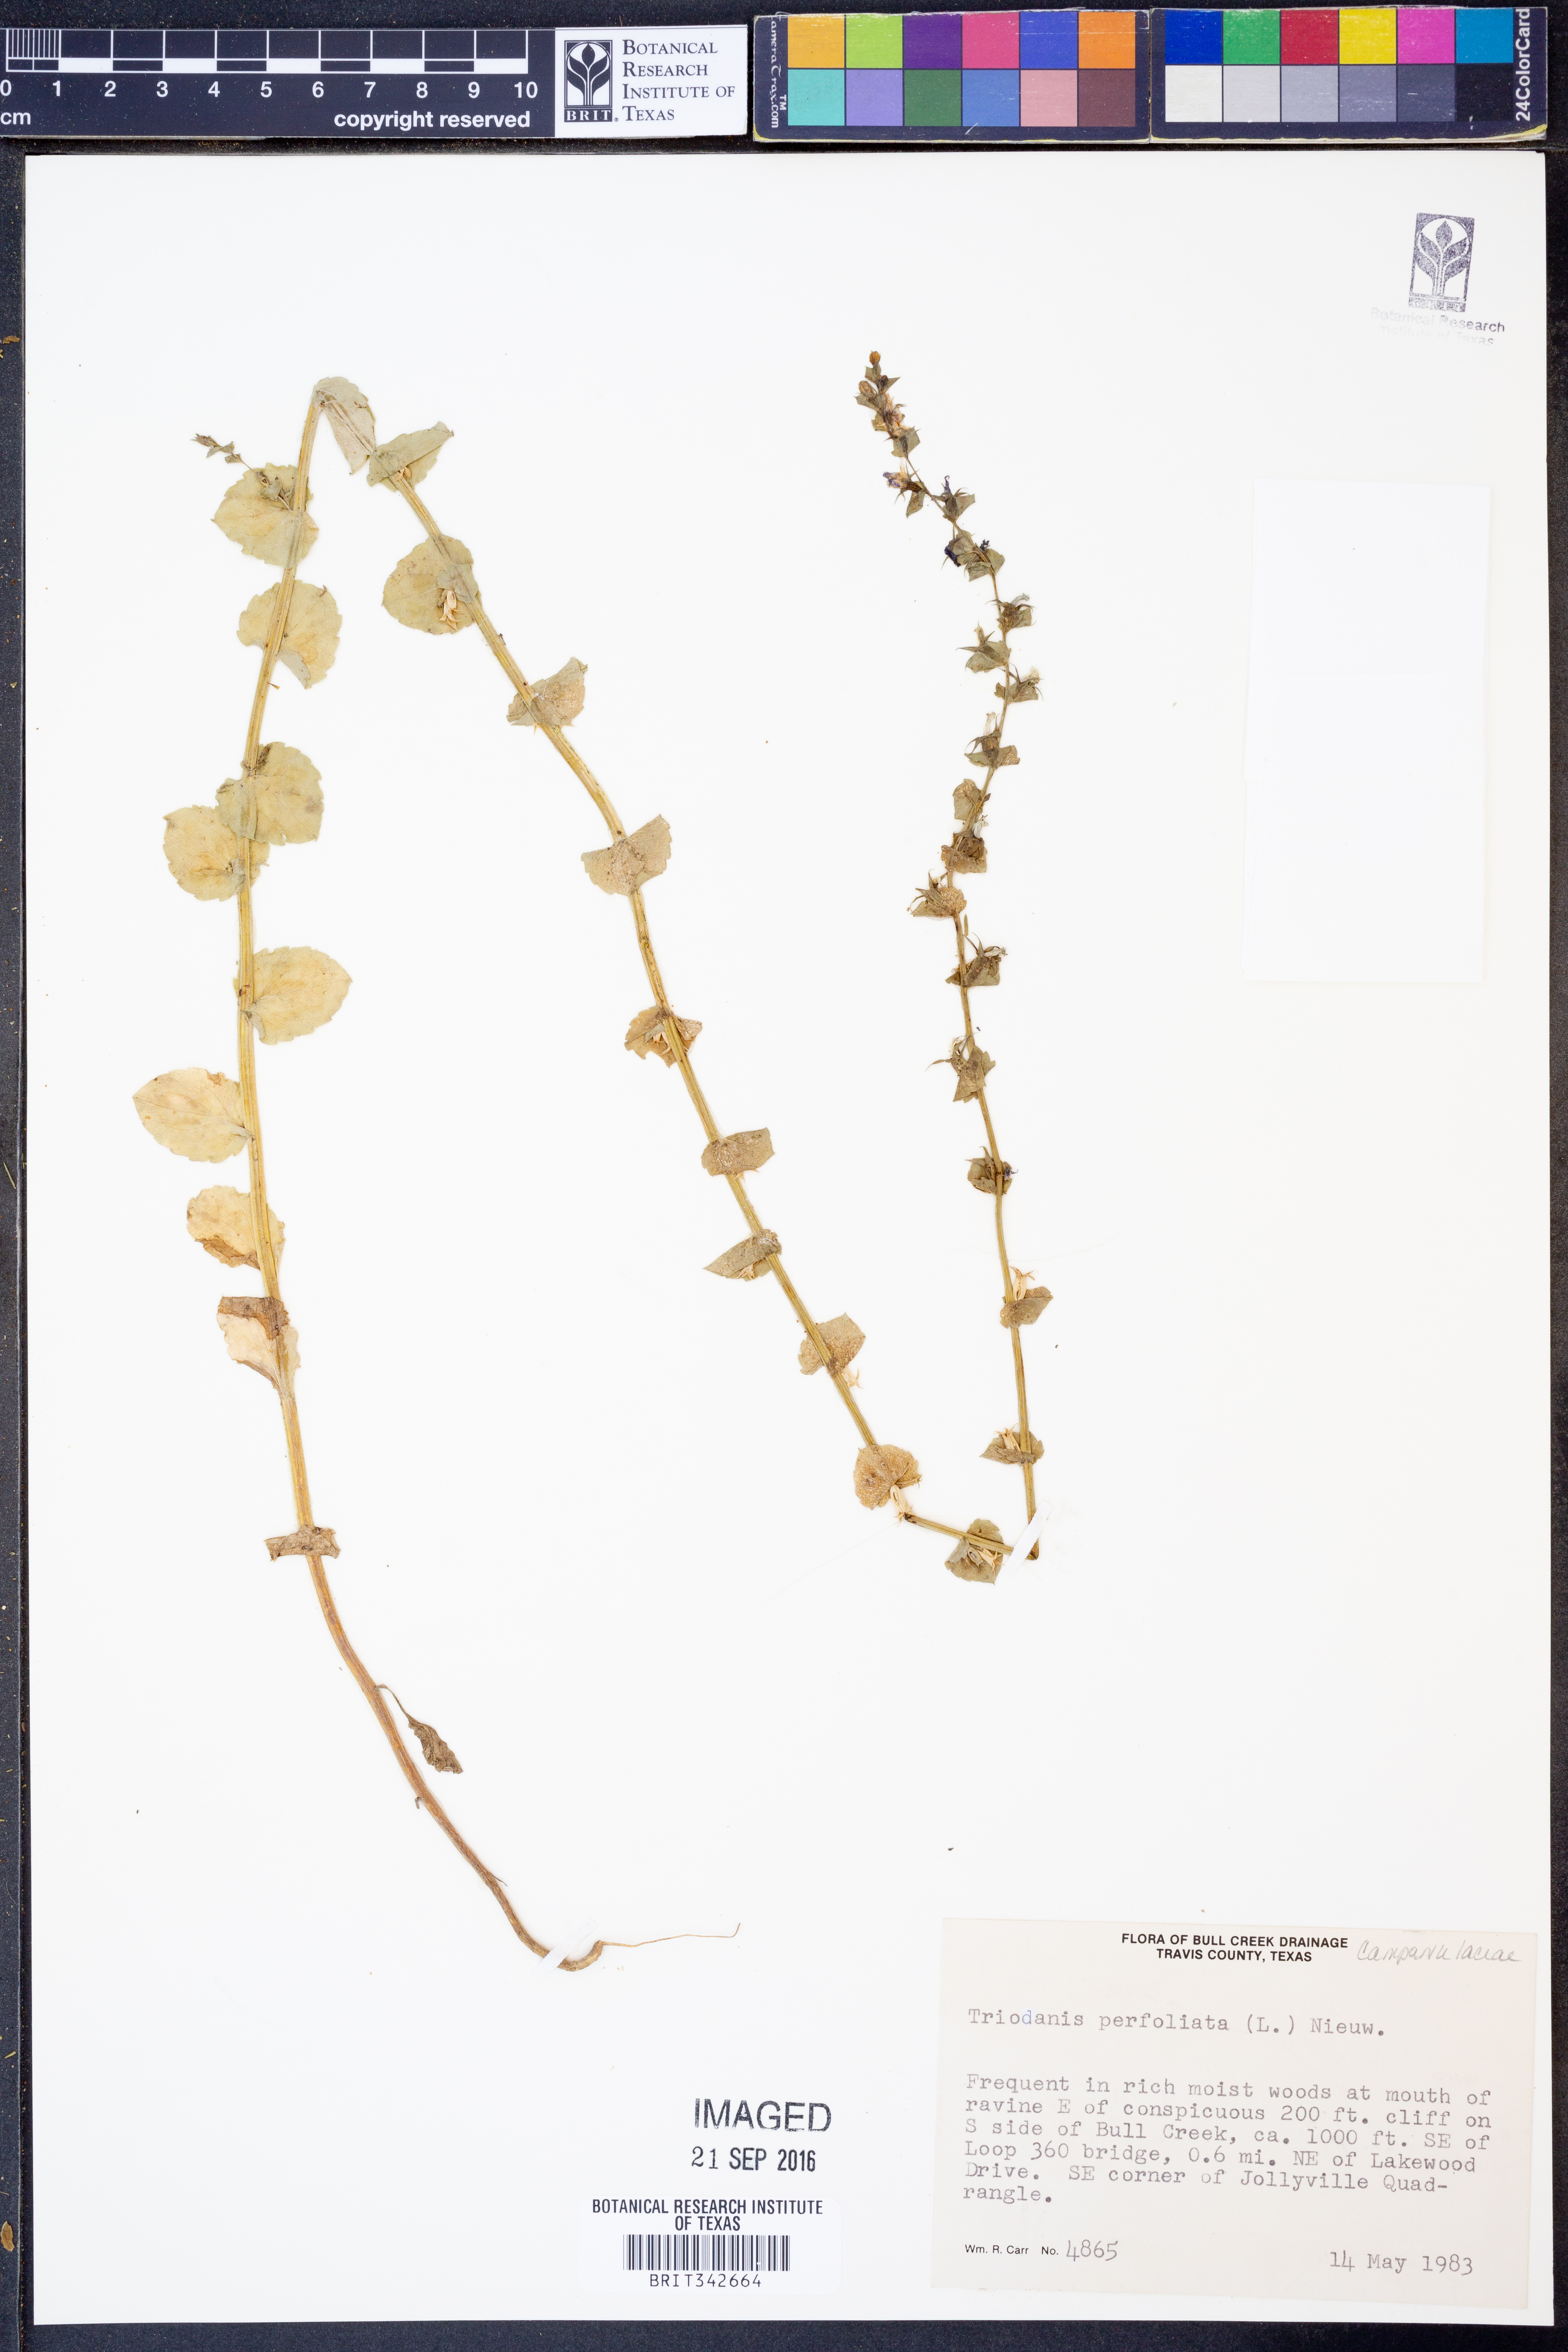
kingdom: Plantae
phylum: Tracheophyta
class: Magnoliopsida
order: Asterales
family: Campanulaceae
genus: Triodanis
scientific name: Triodanis perfoliata
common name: Clasping venus' looking-glass
